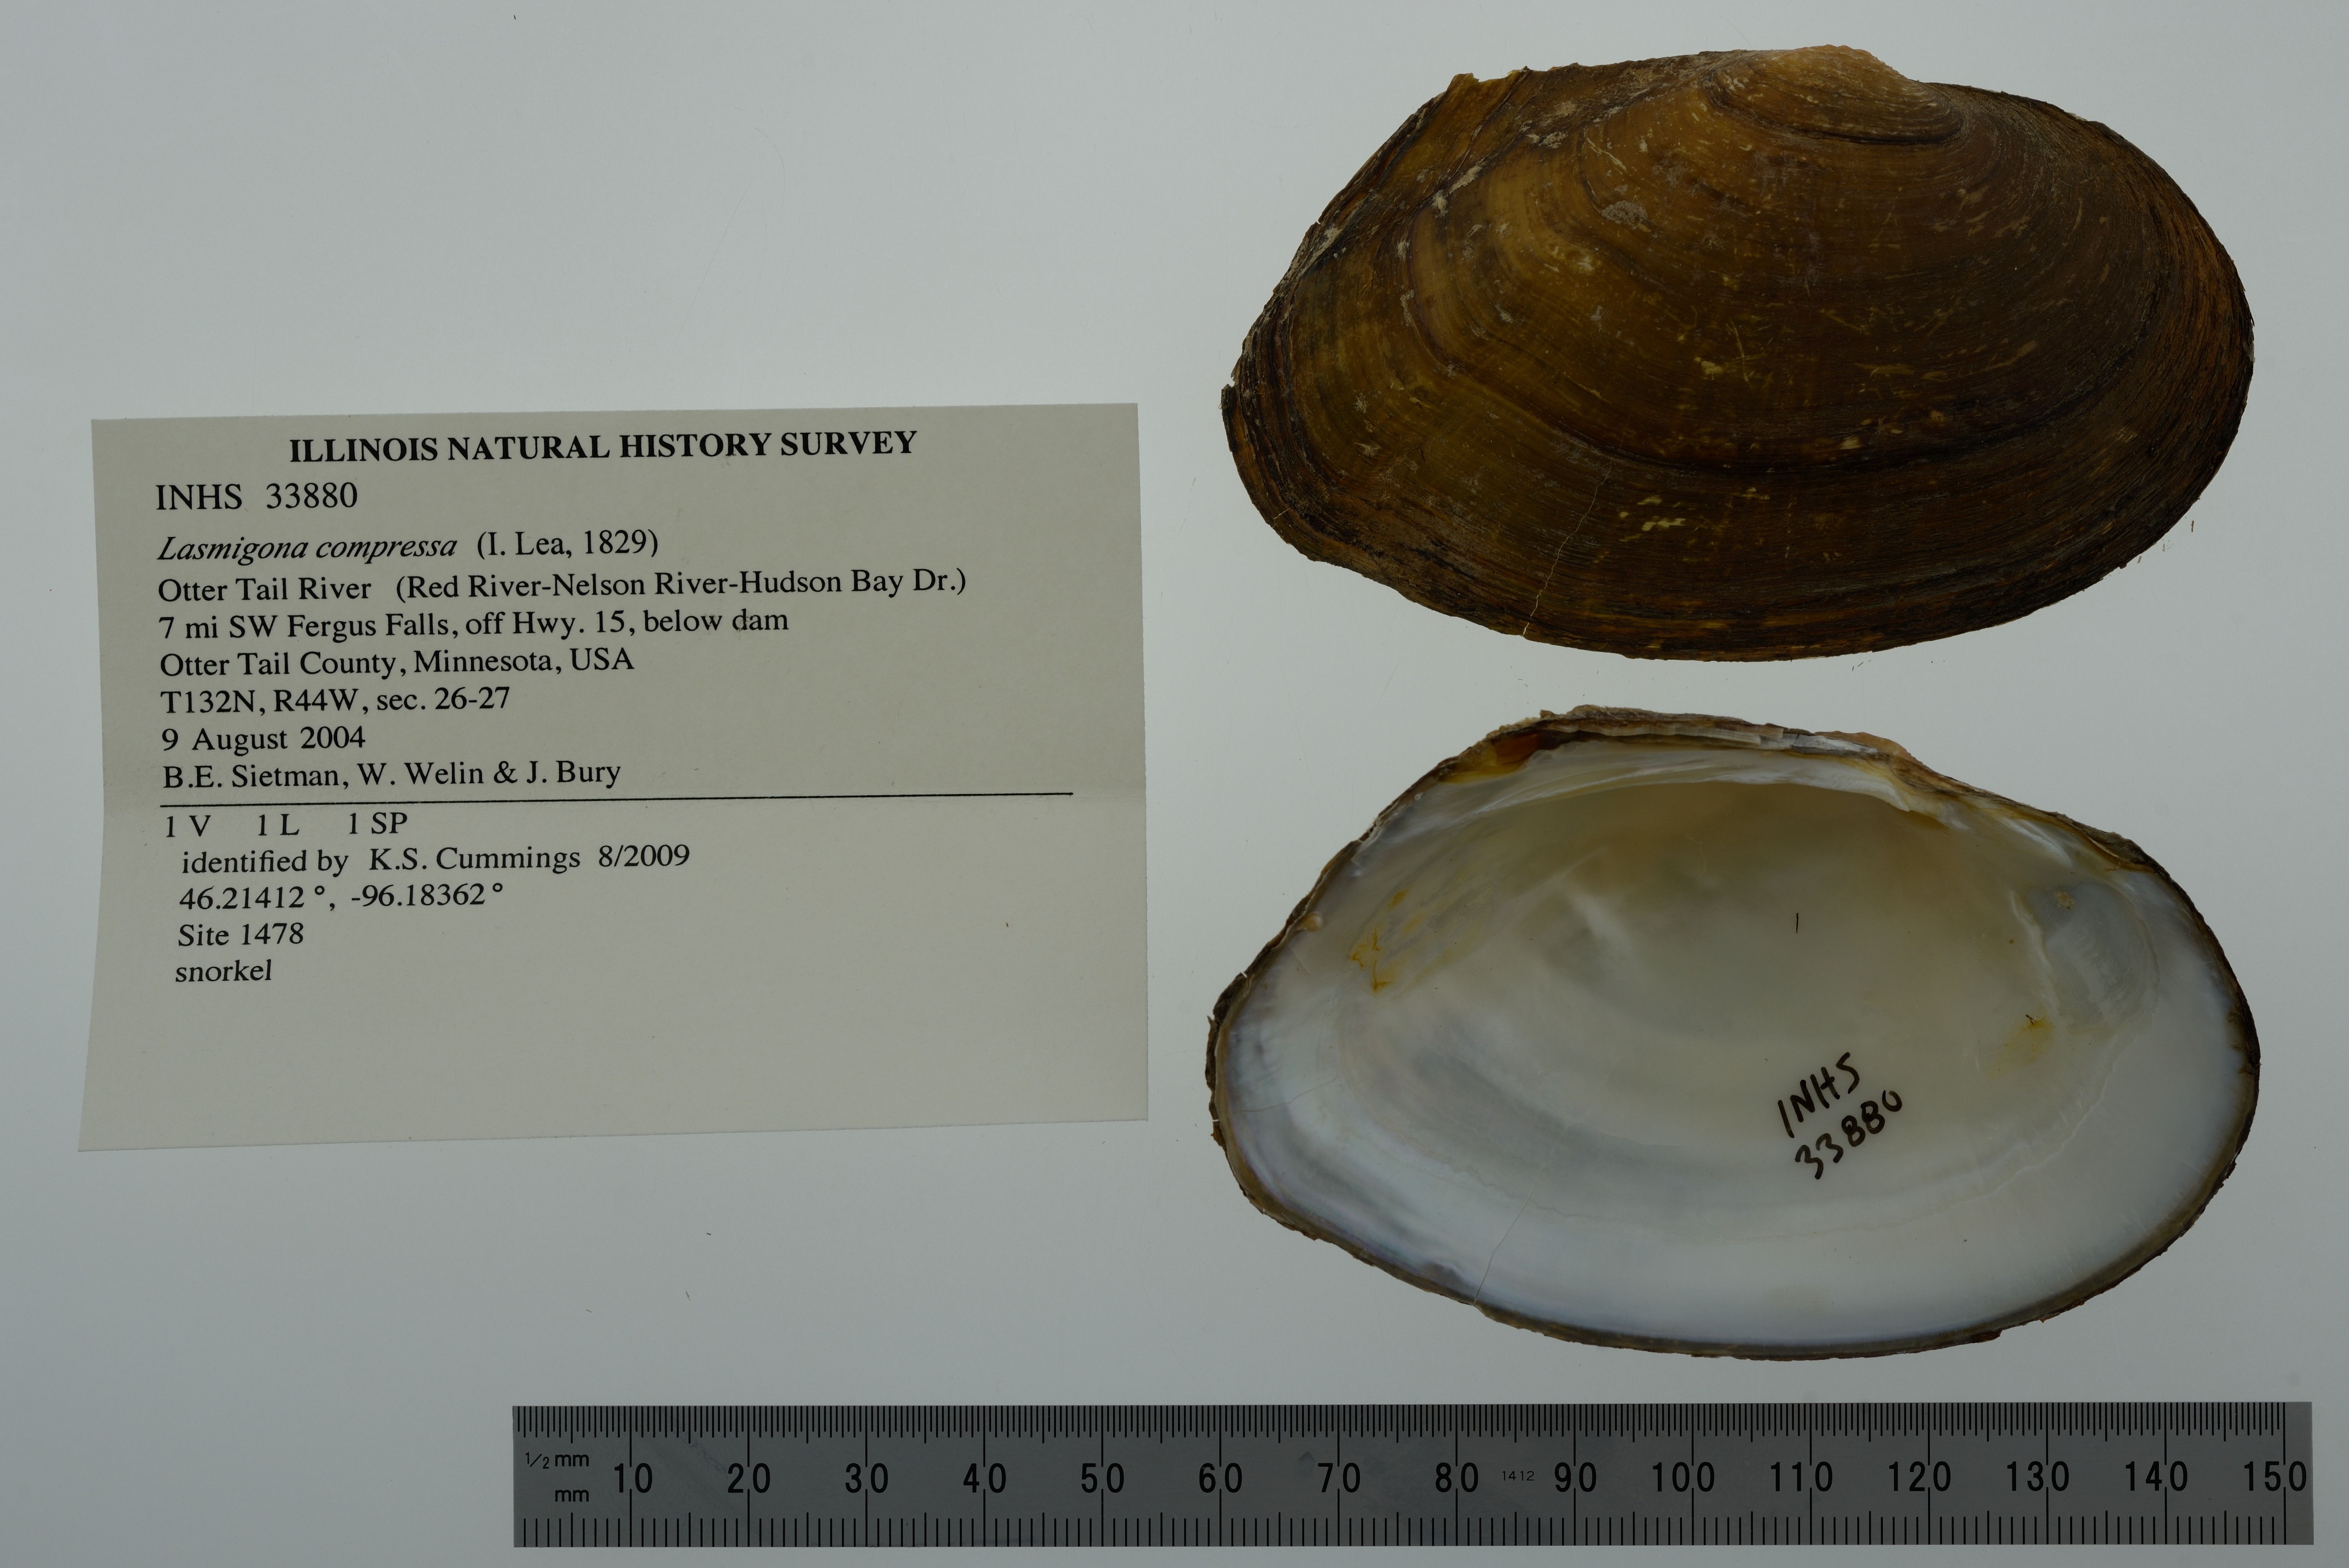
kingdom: Animalia
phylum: Mollusca
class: Bivalvia
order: Unionida
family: Unionidae
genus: Lasmigona
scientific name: Lasmigona compressa
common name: Creek heelsplitter
